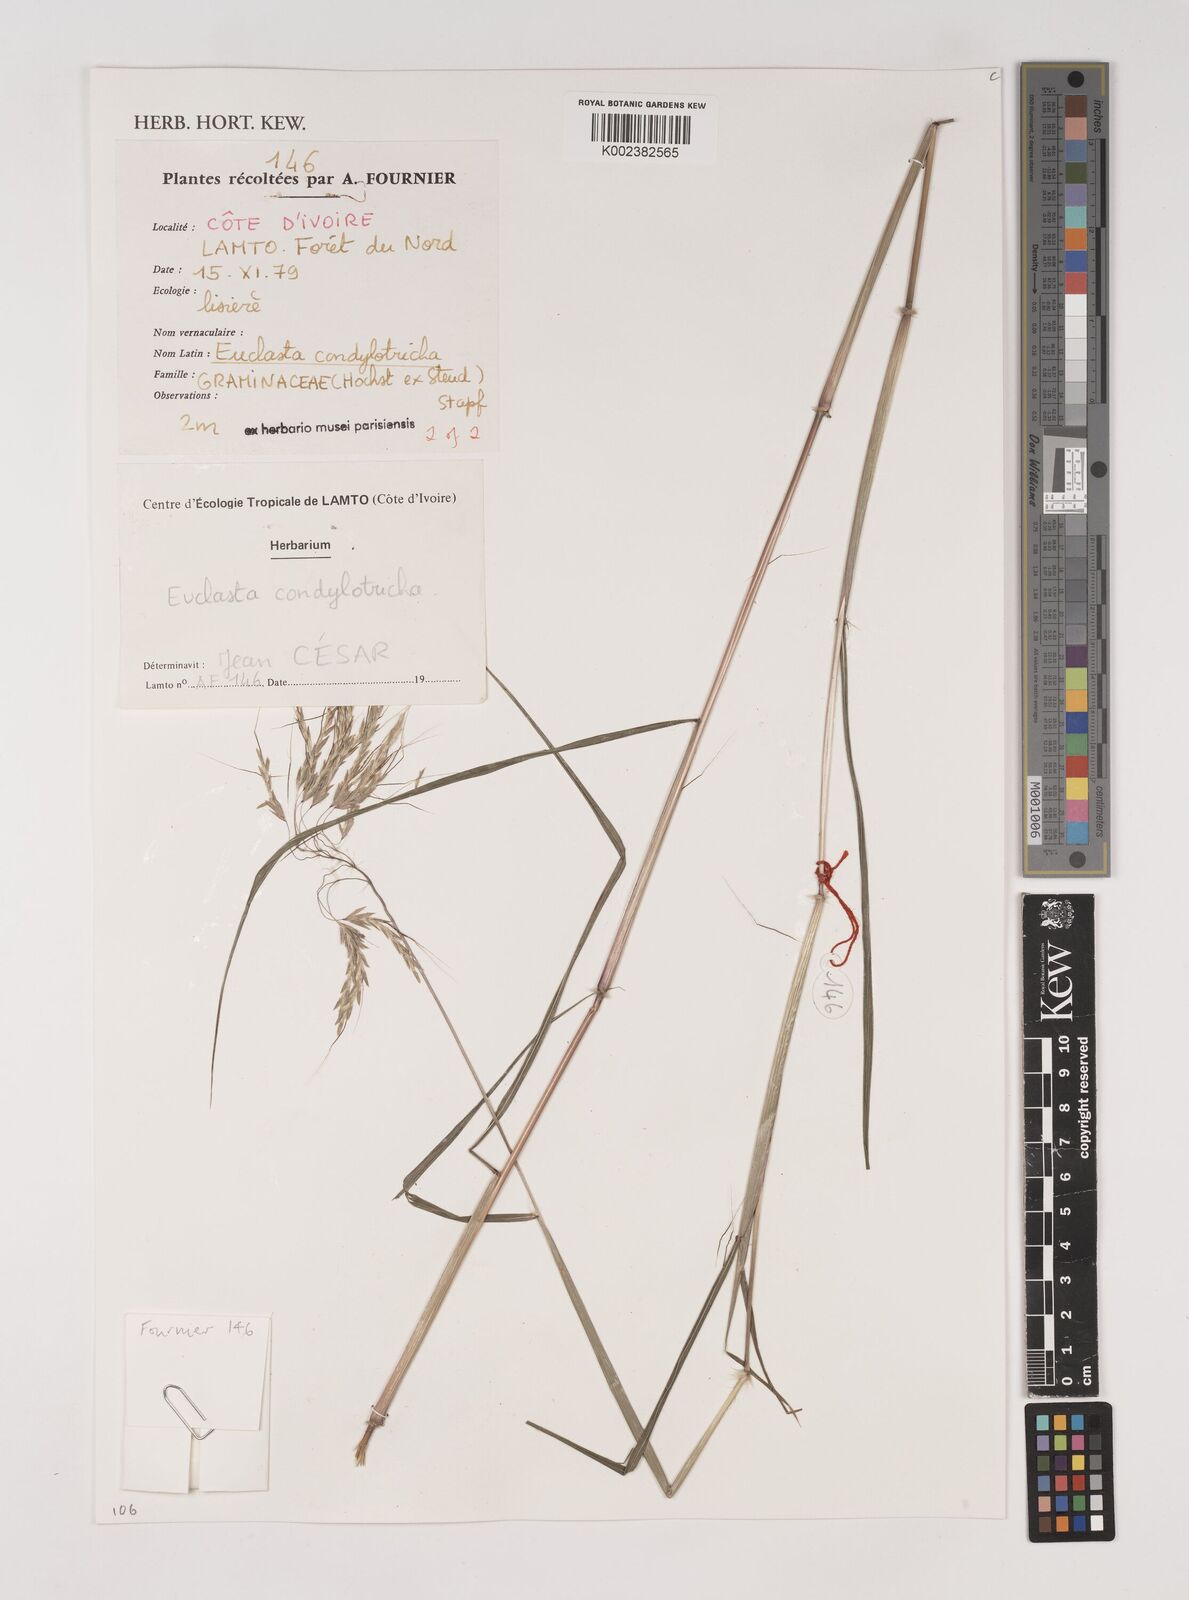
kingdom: Plantae
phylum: Tracheophyta
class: Liliopsida
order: Poales
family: Poaceae
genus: Euclasta
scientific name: Euclasta condylotricha
